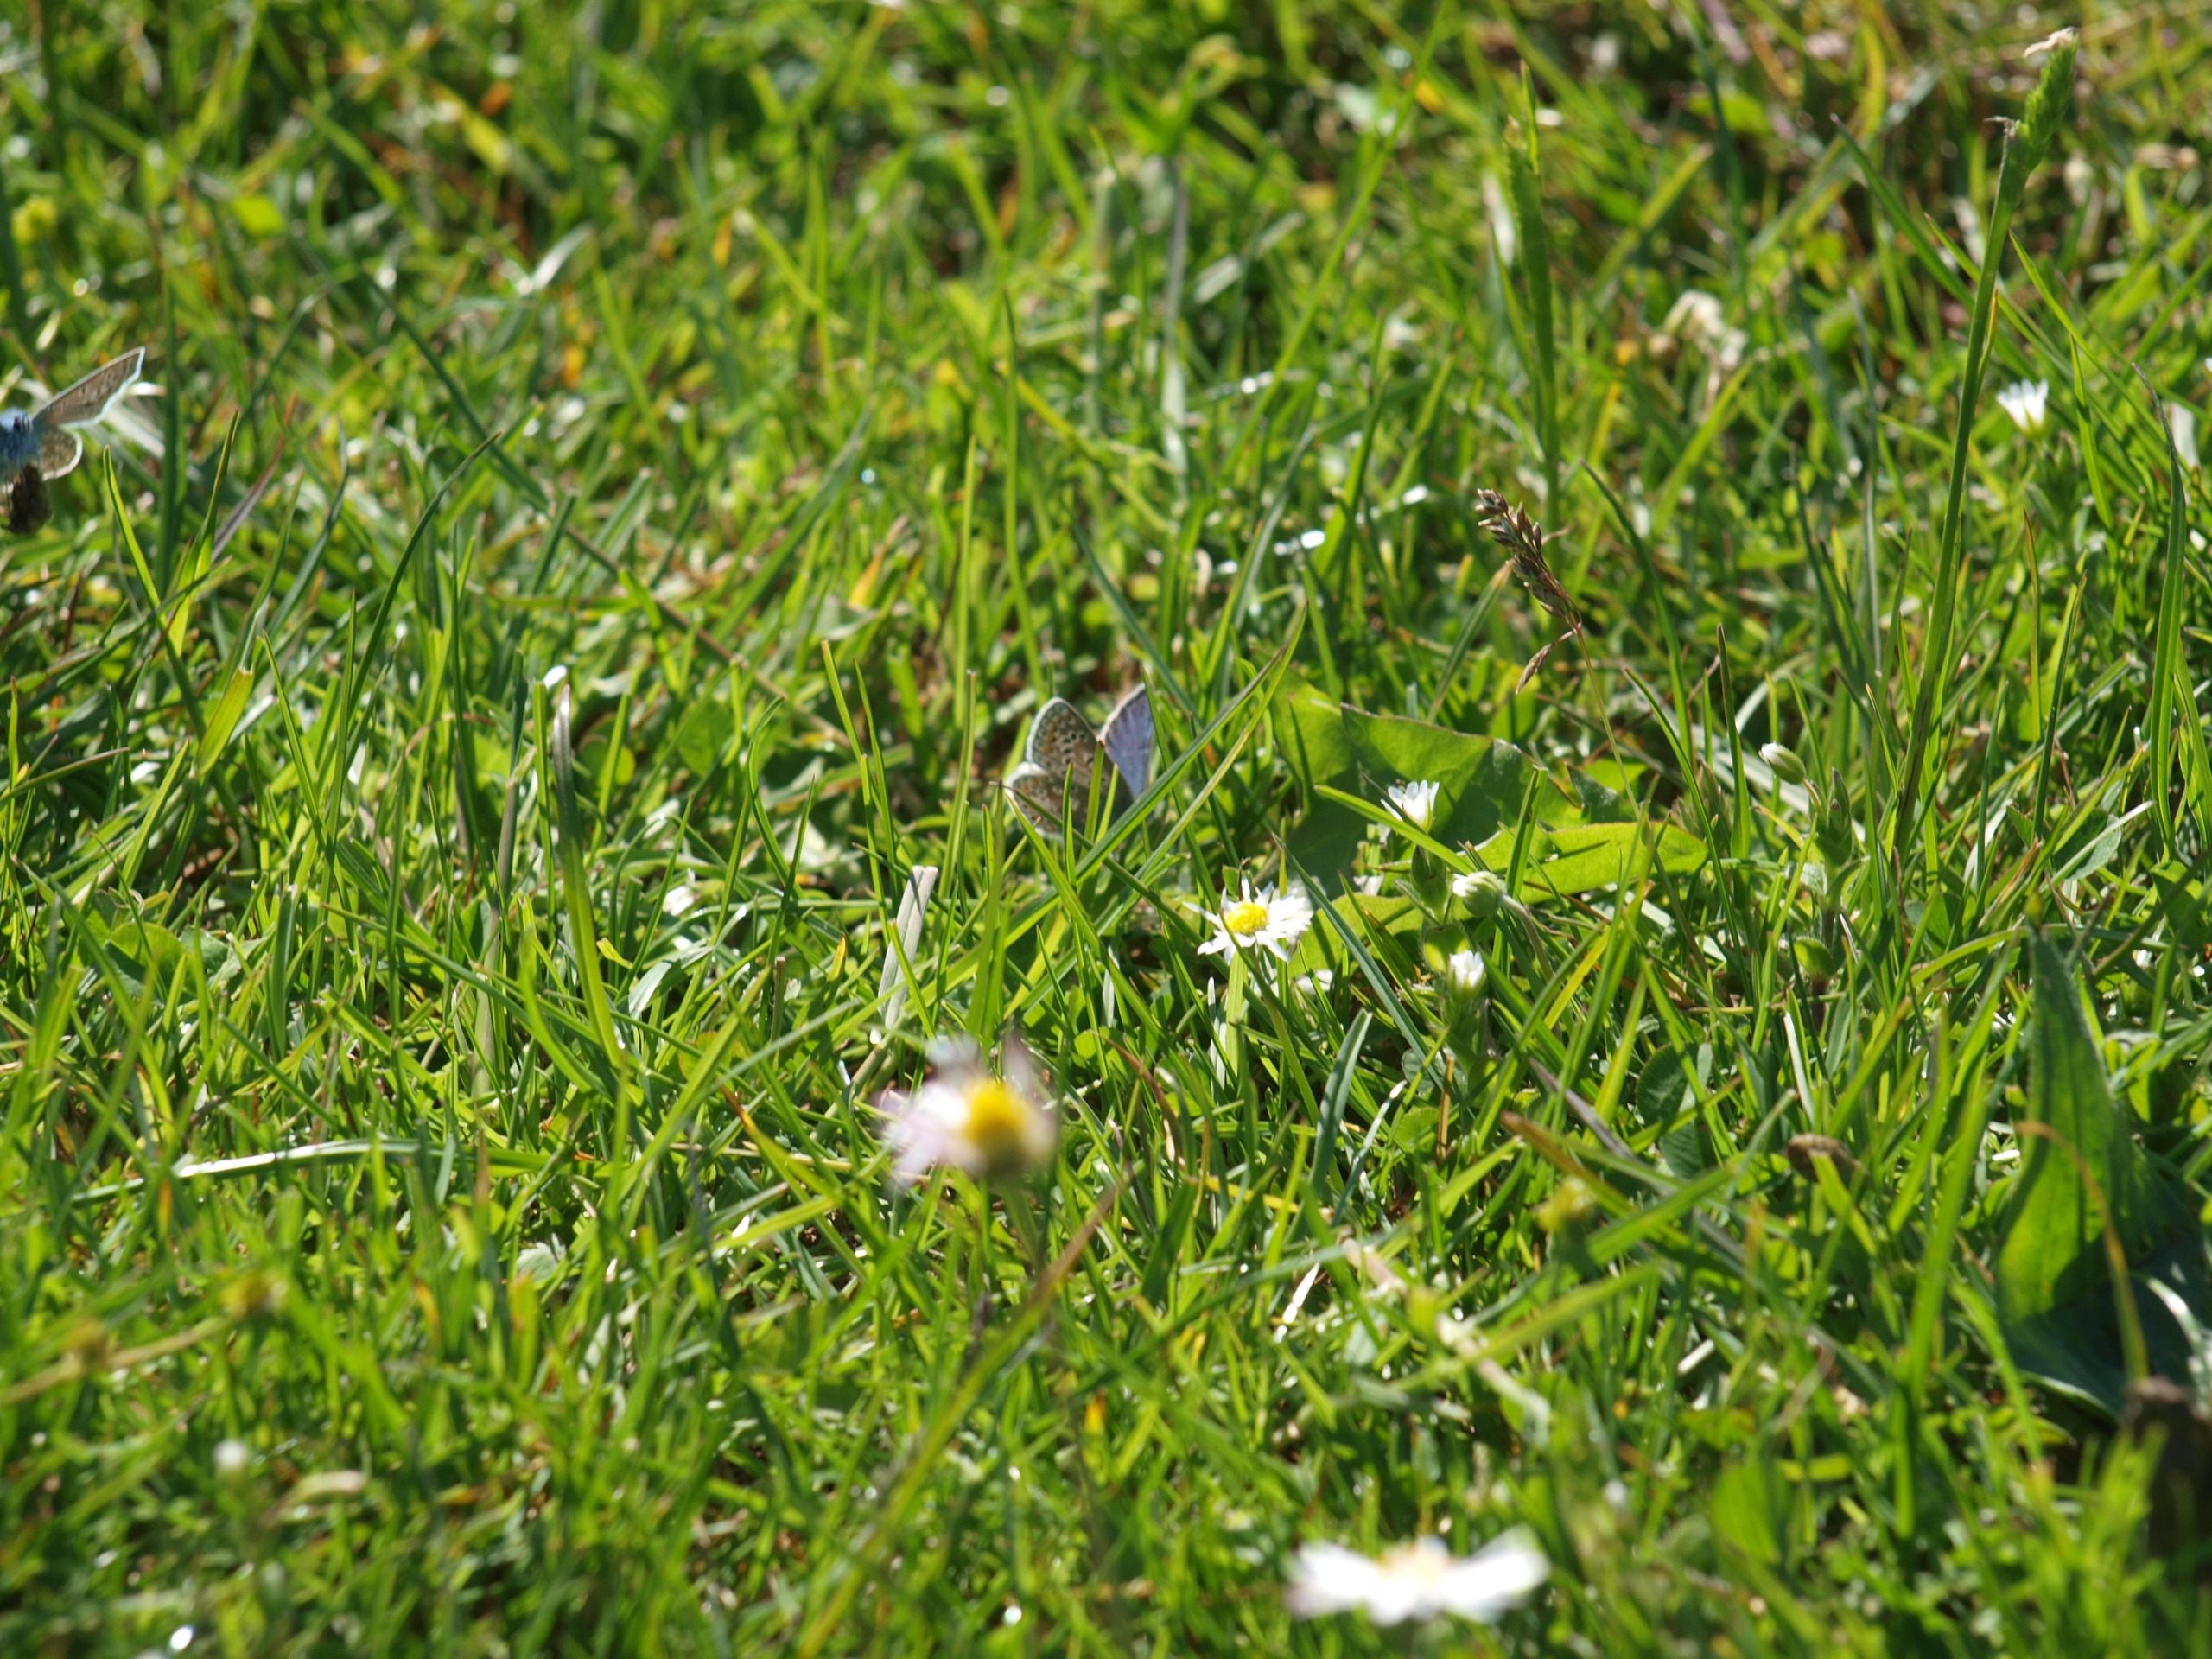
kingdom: Animalia
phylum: Arthropoda
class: Insecta
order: Lepidoptera
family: Lycaenidae
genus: Polyommatus
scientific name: Polyommatus icarus
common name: Almindelig blåfugl
